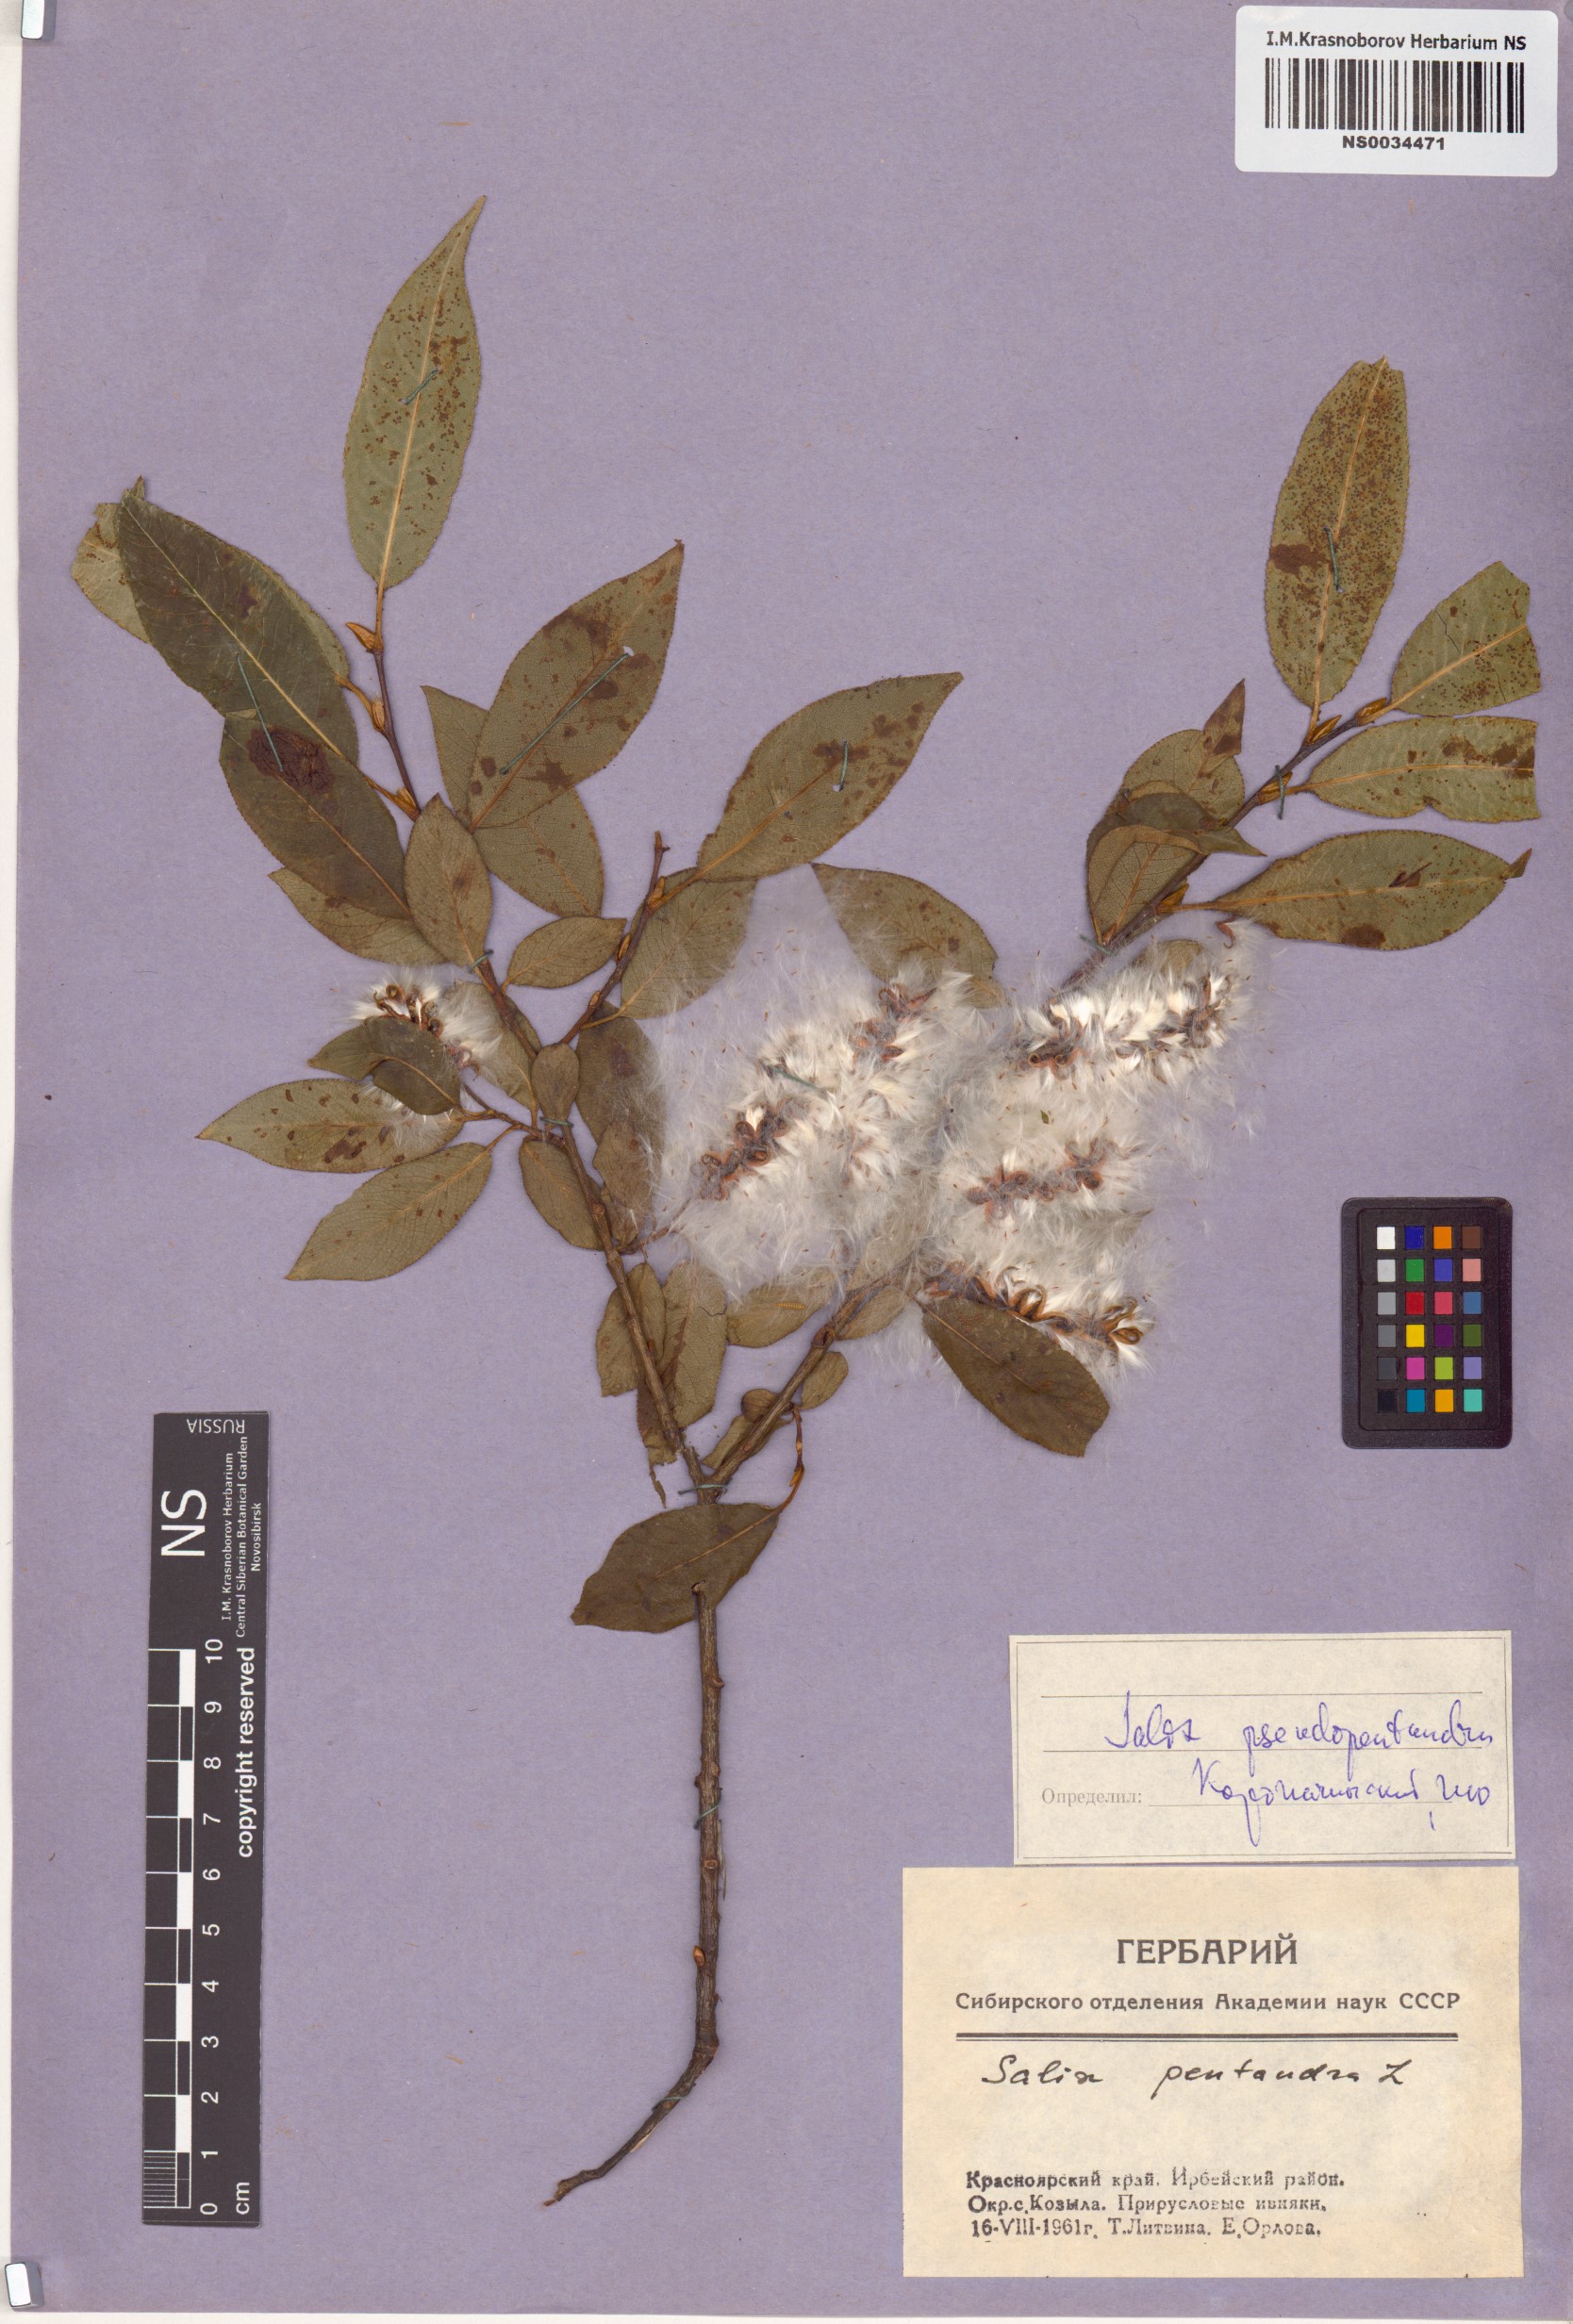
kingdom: Plantae
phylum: Tracheophyta
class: Magnoliopsida
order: Malpighiales
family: Salicaceae
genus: Salix
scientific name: Salix pseudopentandra
